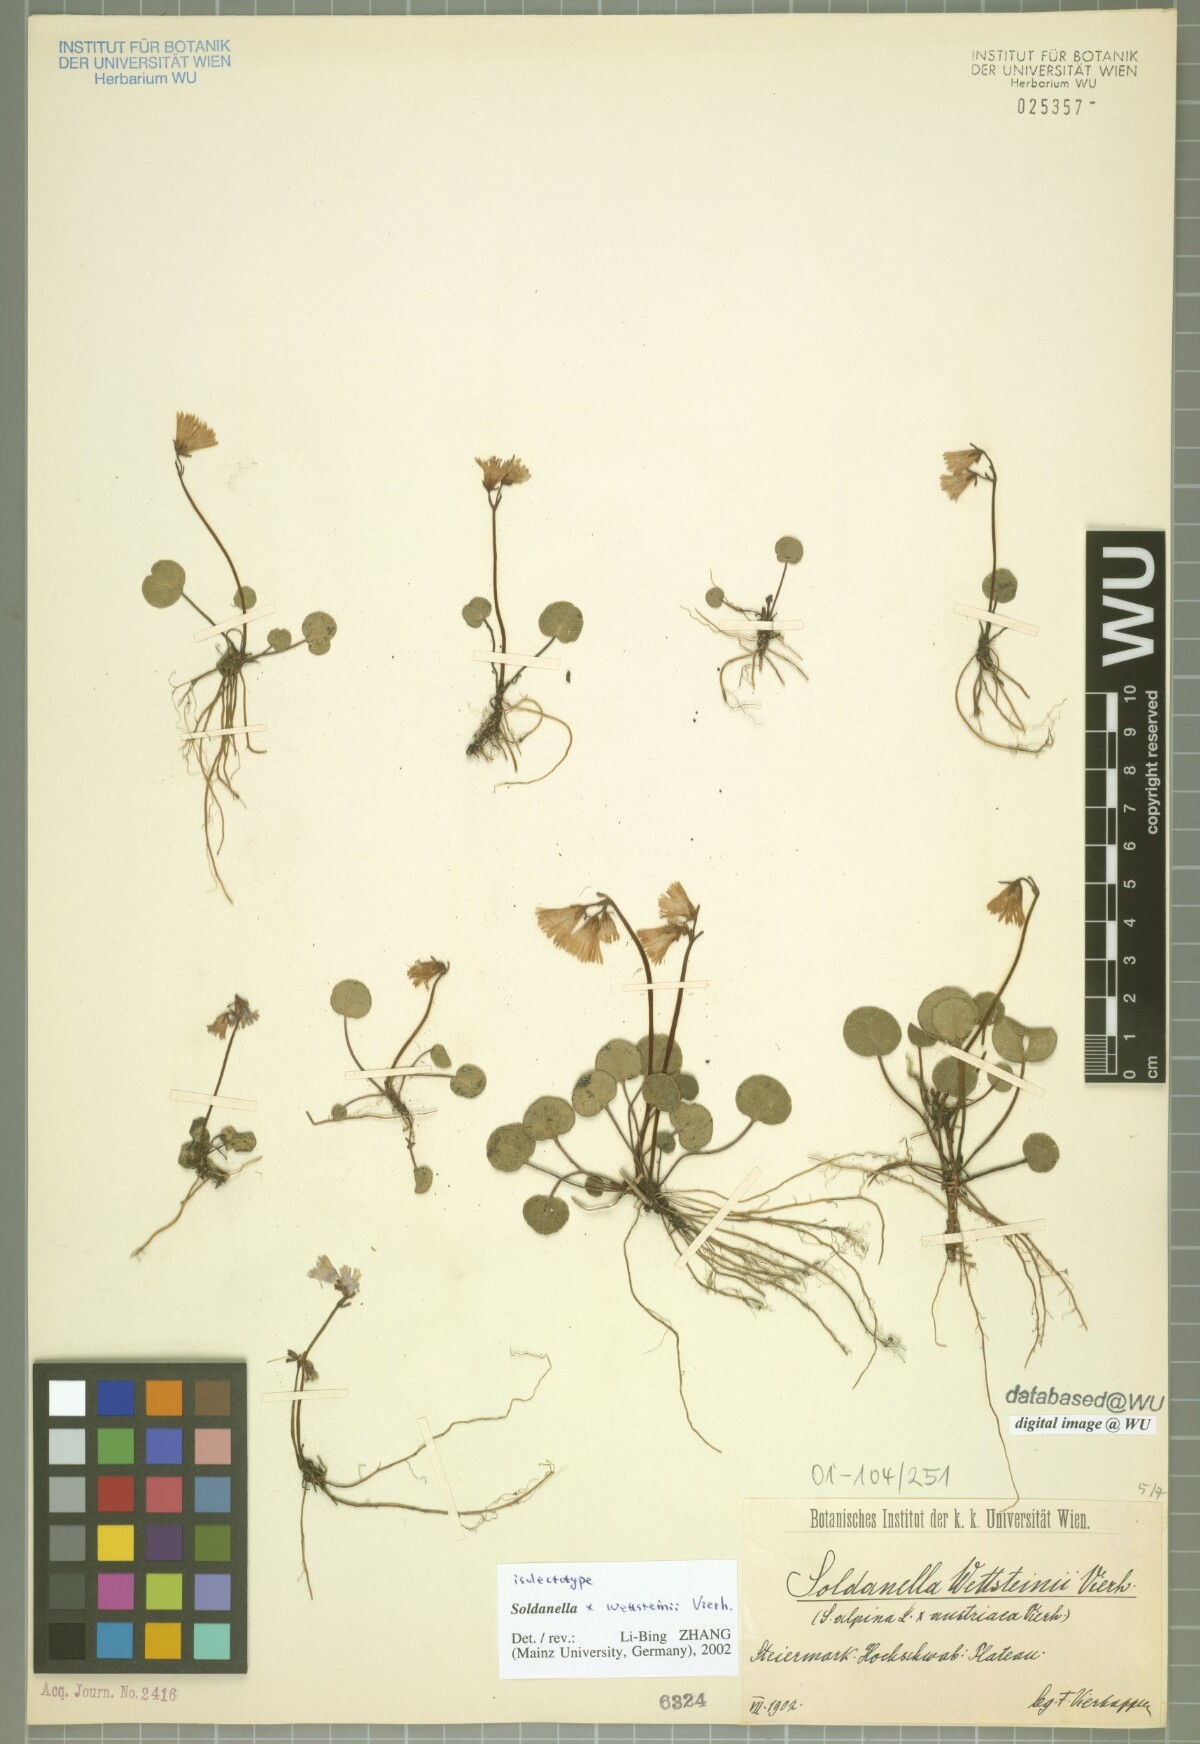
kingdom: Plantae
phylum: Tracheophyta
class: Magnoliopsida
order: Ericales
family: Primulaceae
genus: Soldanella
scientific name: Soldanella wettsteinii
